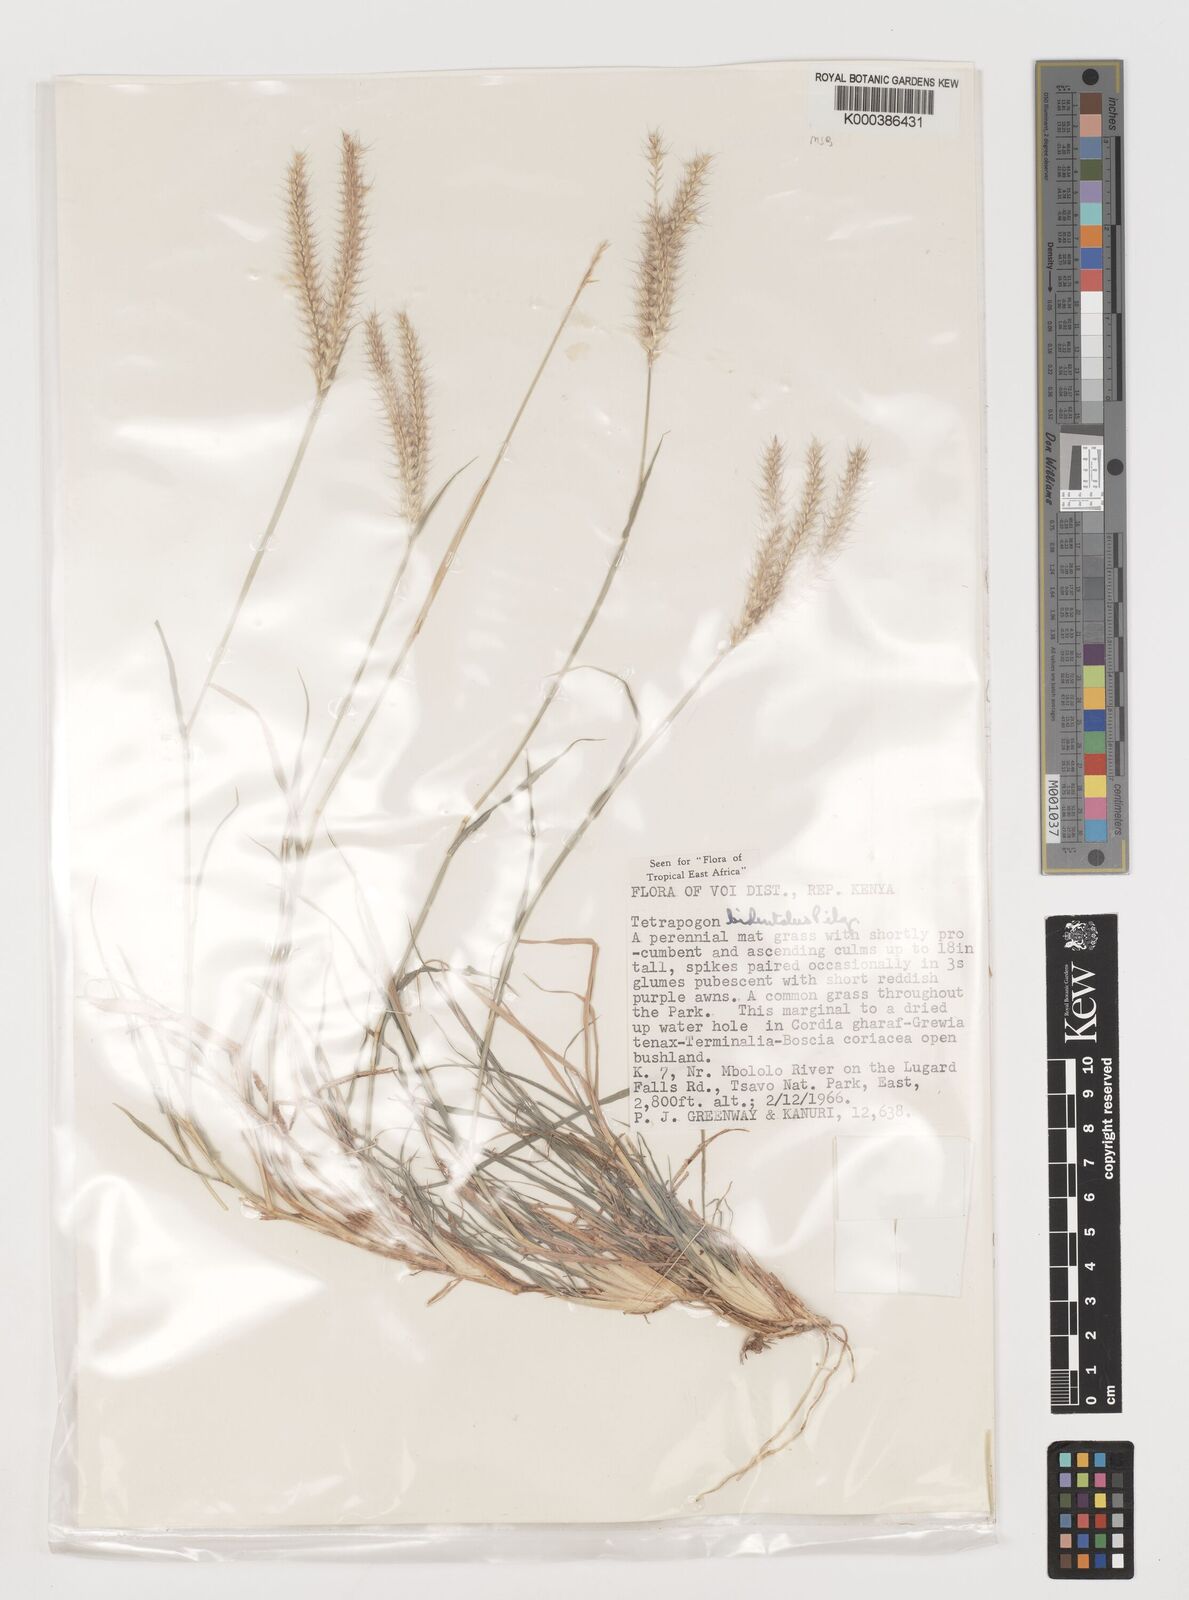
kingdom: Plantae
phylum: Tracheophyta
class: Liliopsida
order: Poales
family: Poaceae
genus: Tetrapogon
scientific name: Tetrapogon bidentatus
